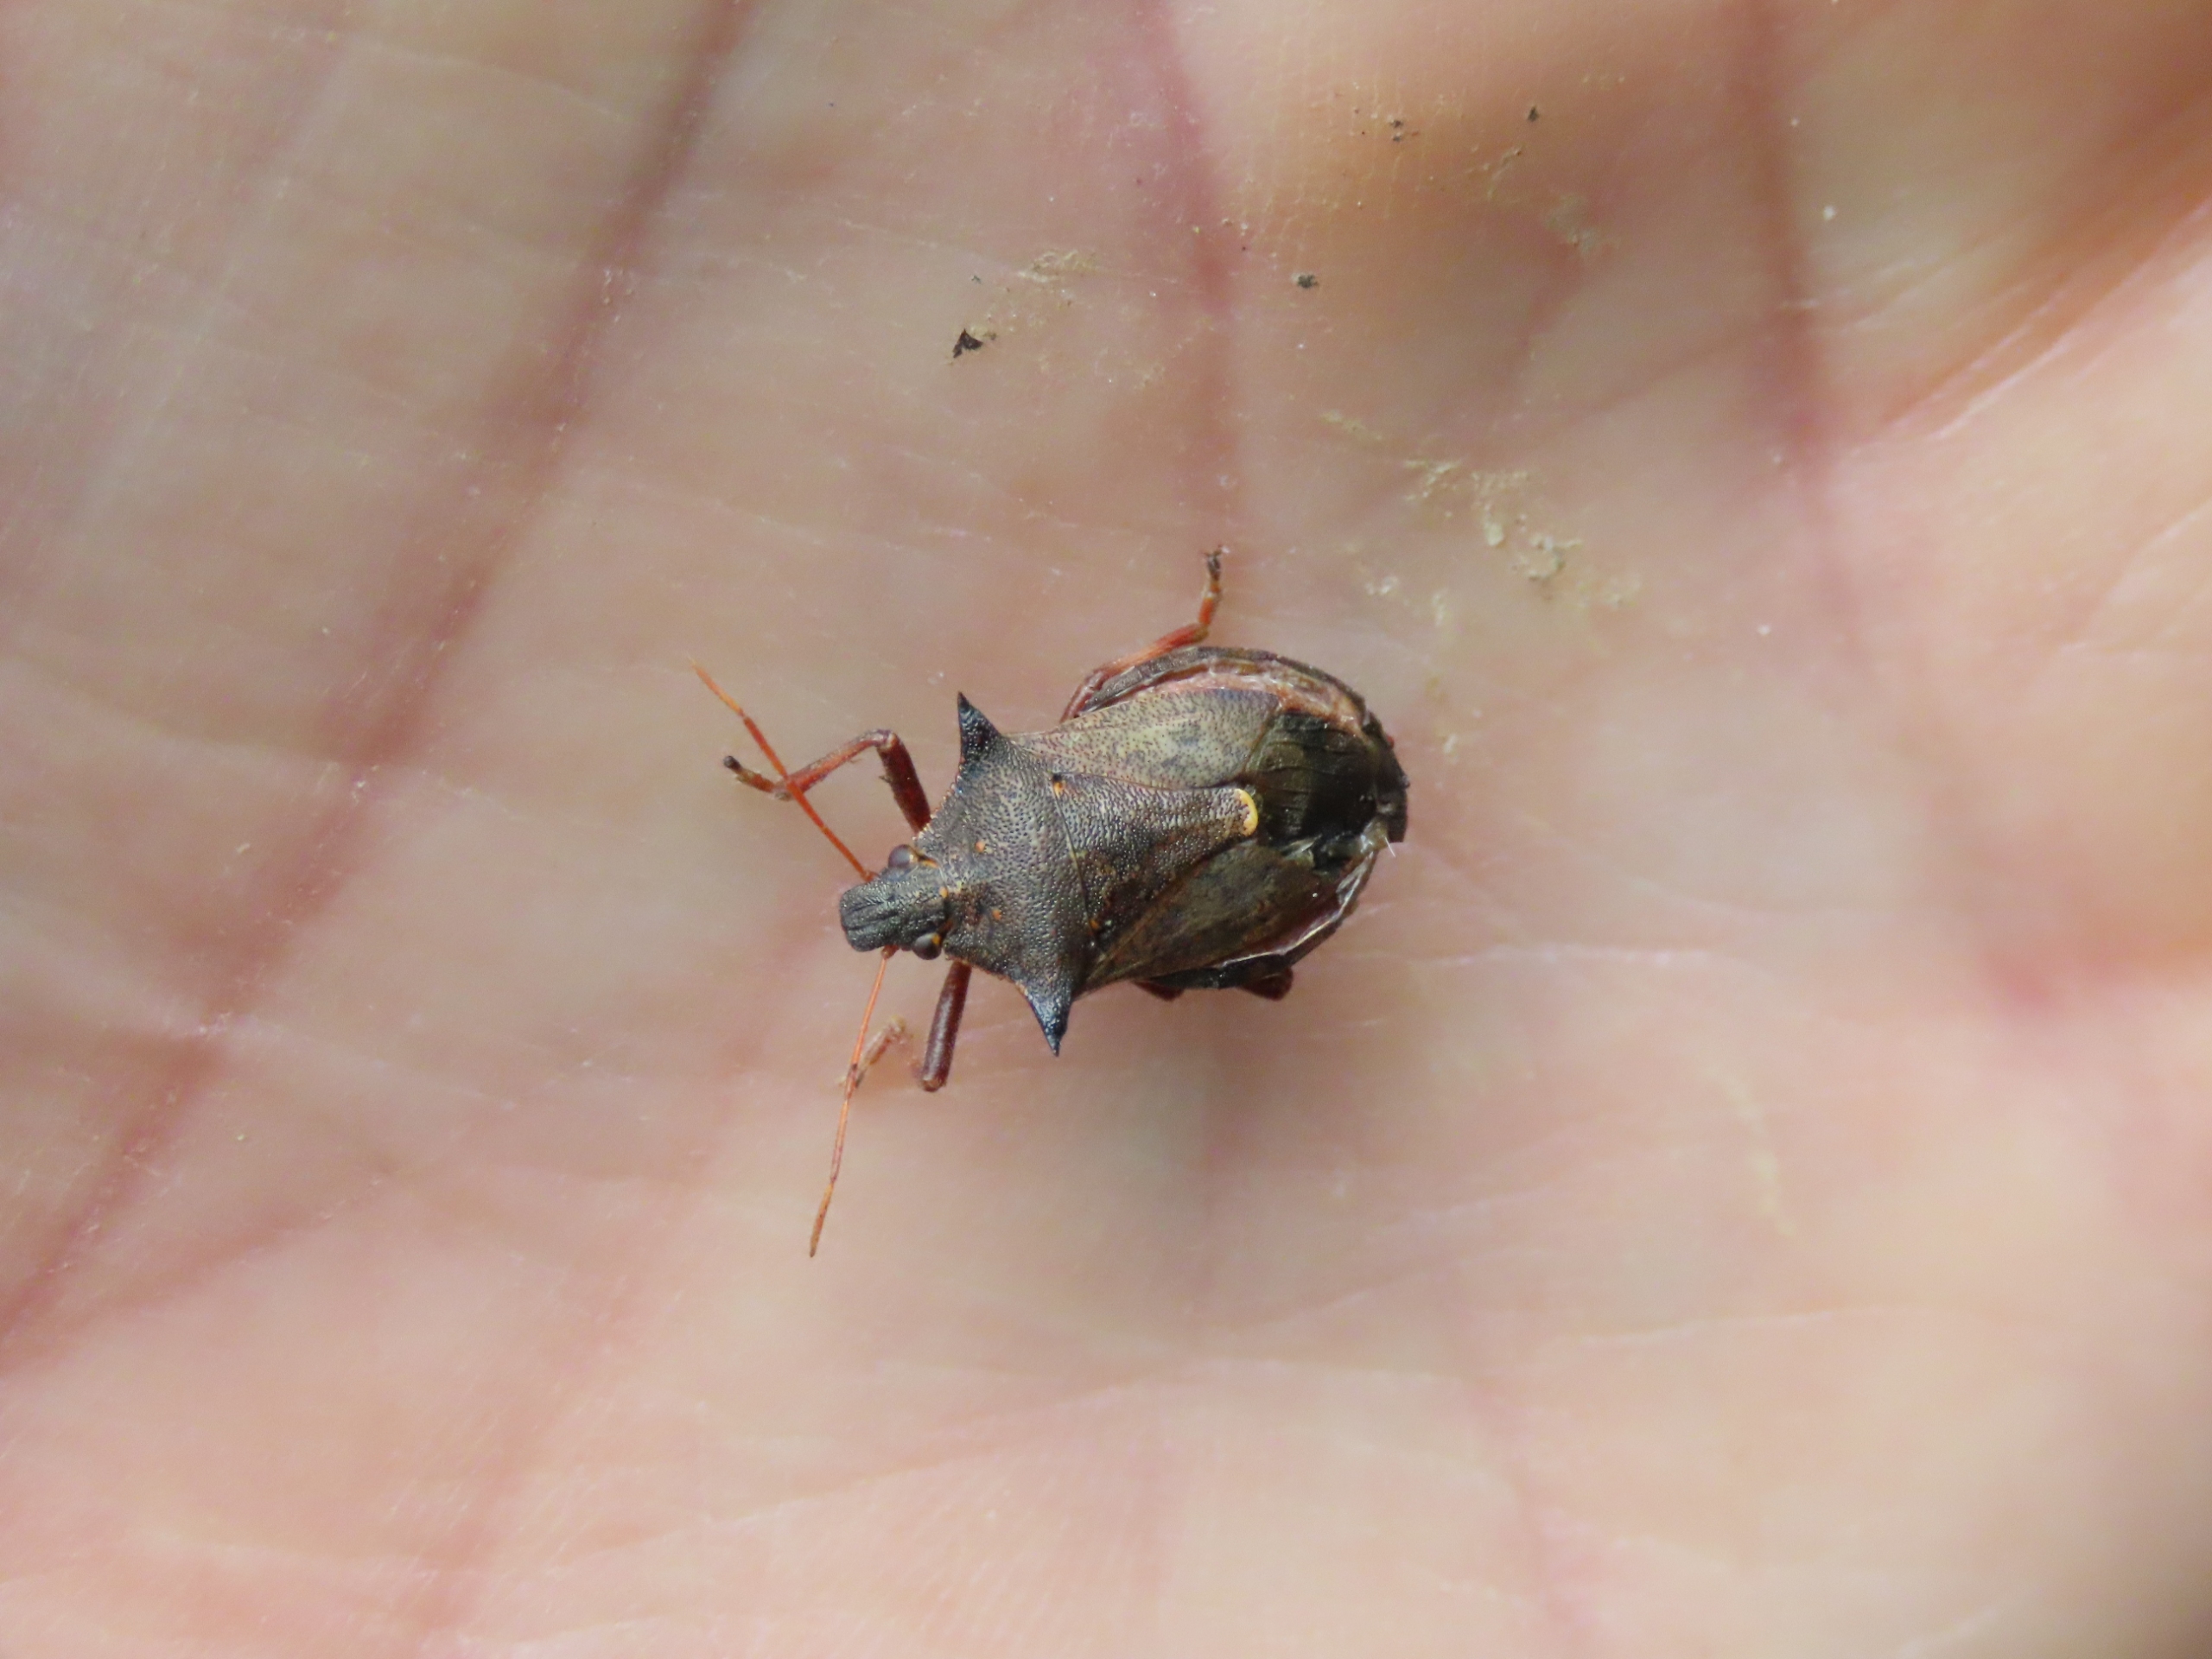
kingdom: Animalia
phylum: Arthropoda
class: Insecta
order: Hemiptera
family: Pentatomidae
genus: Picromerus
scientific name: Picromerus bidens
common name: Torntæge
